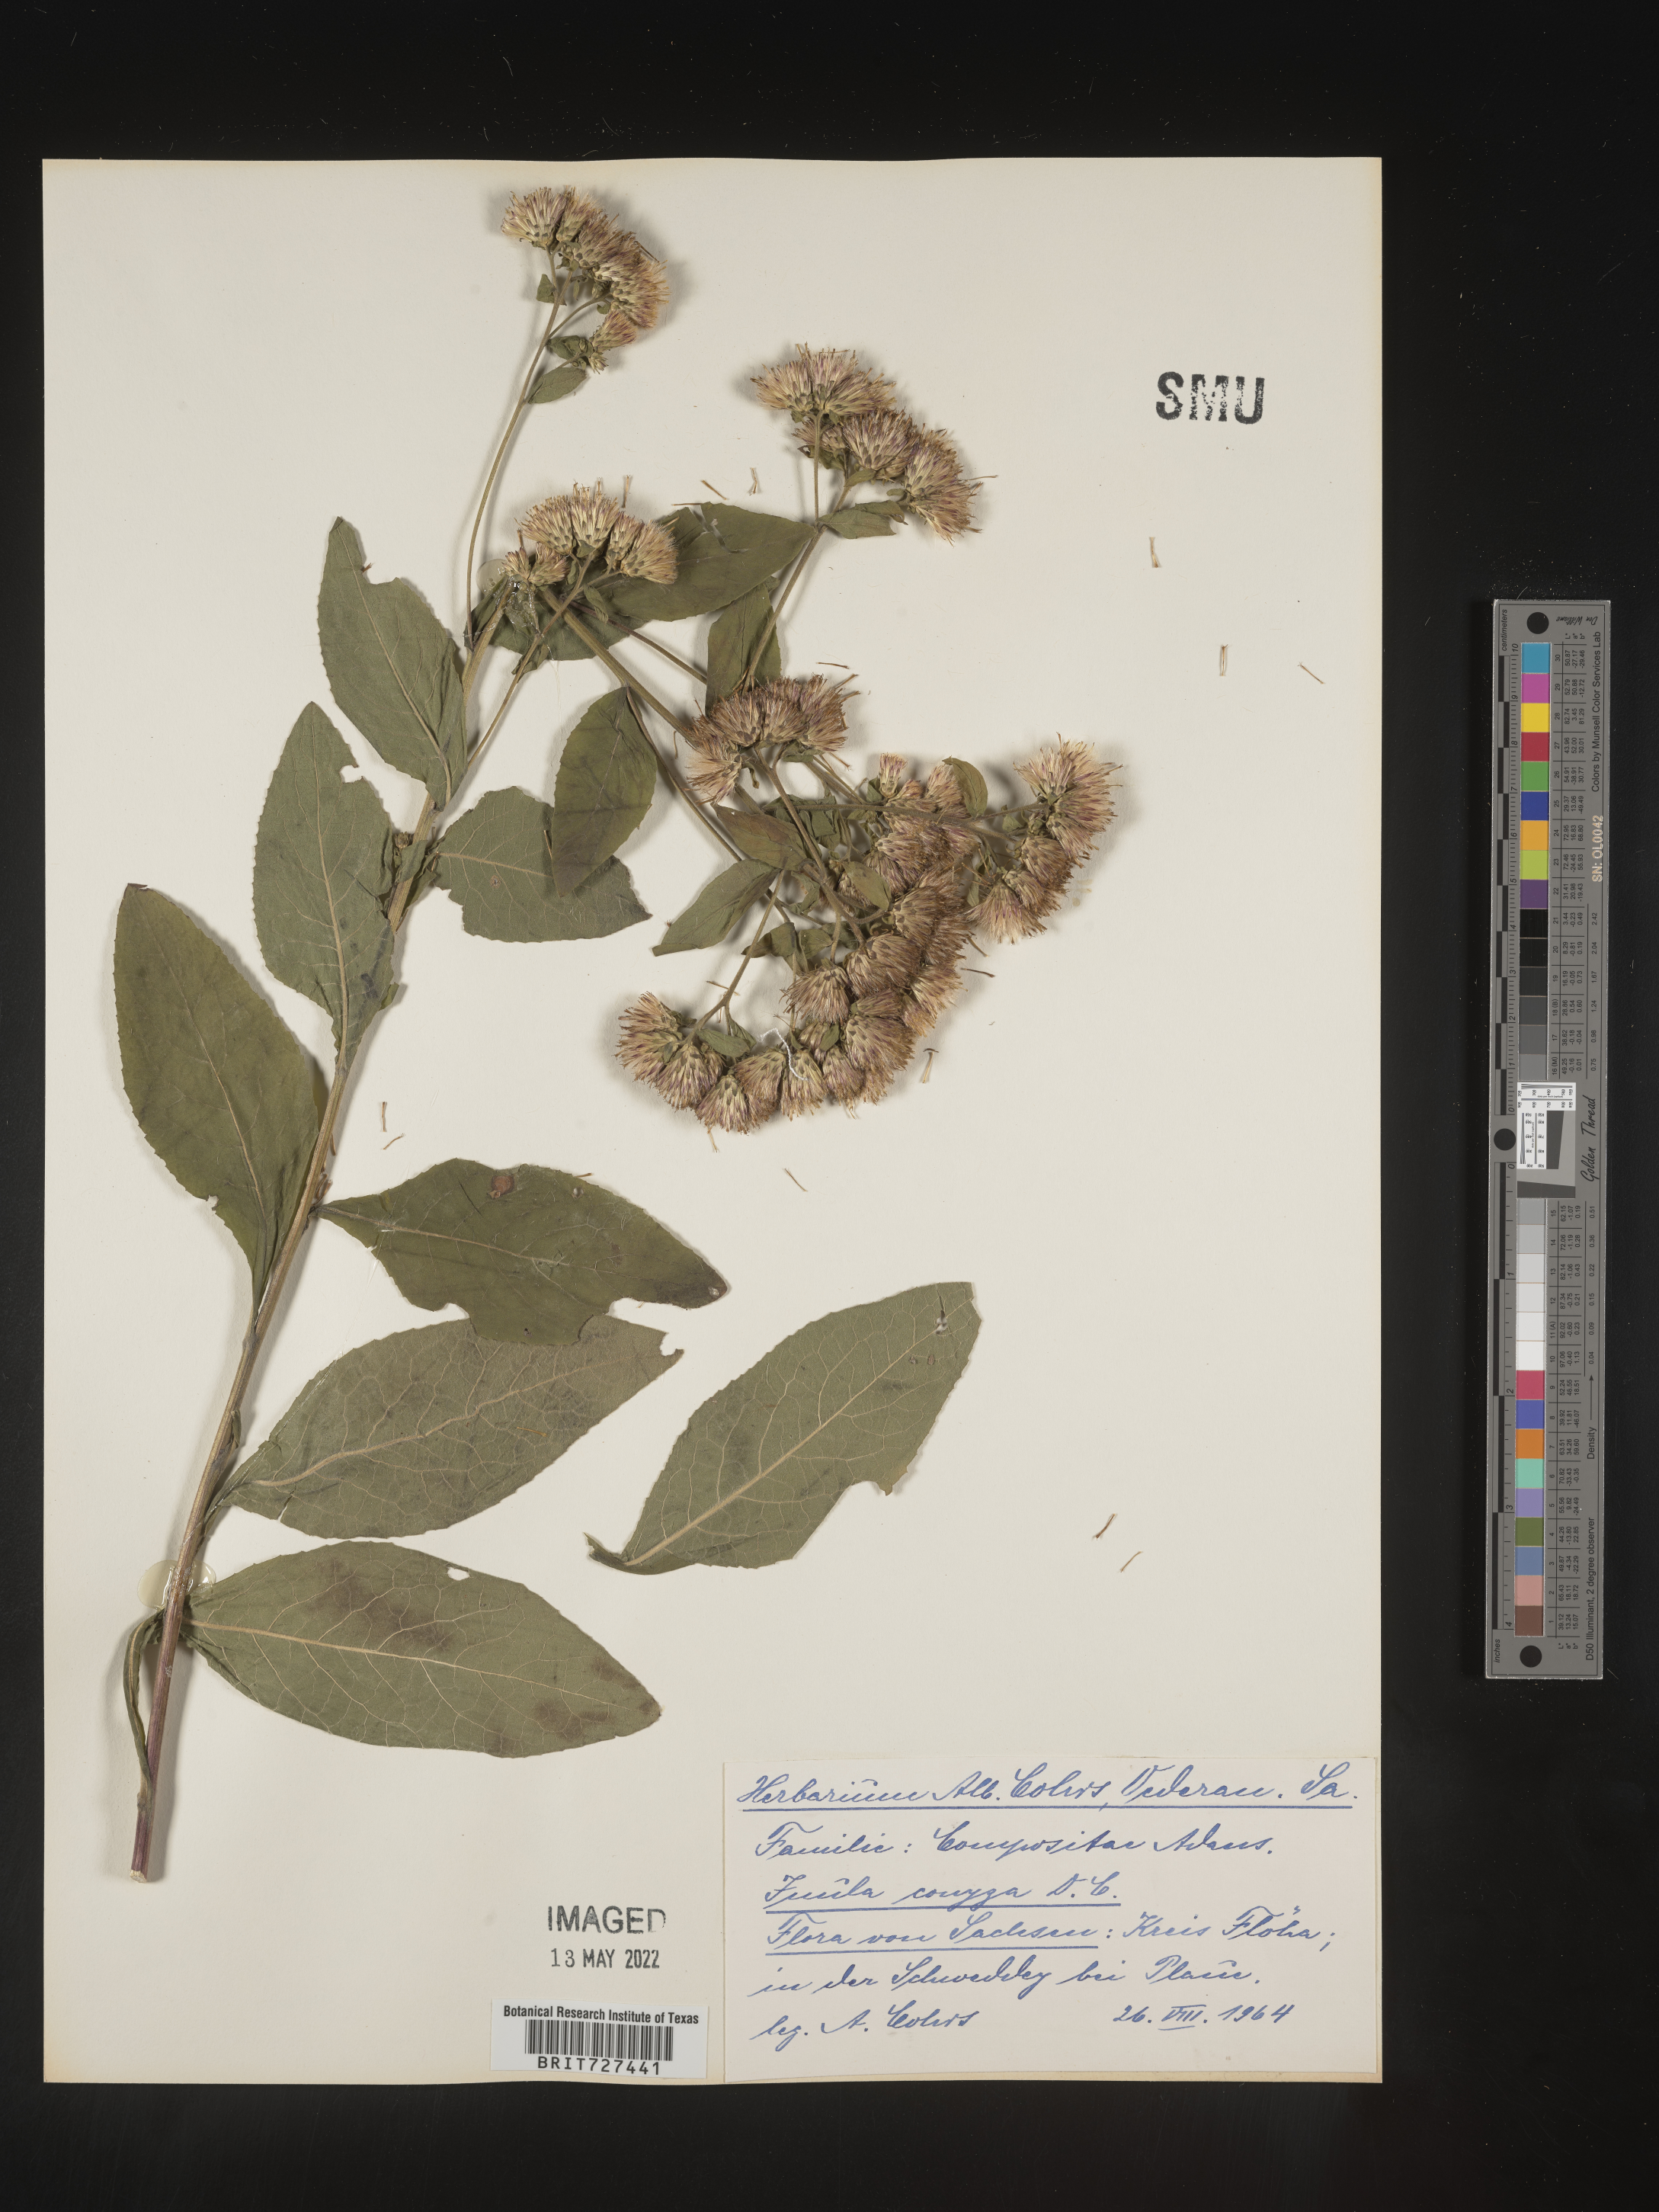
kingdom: Plantae
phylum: Tracheophyta
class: Magnoliopsida
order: Asterales
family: Asteraceae
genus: Inula
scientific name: Inula
